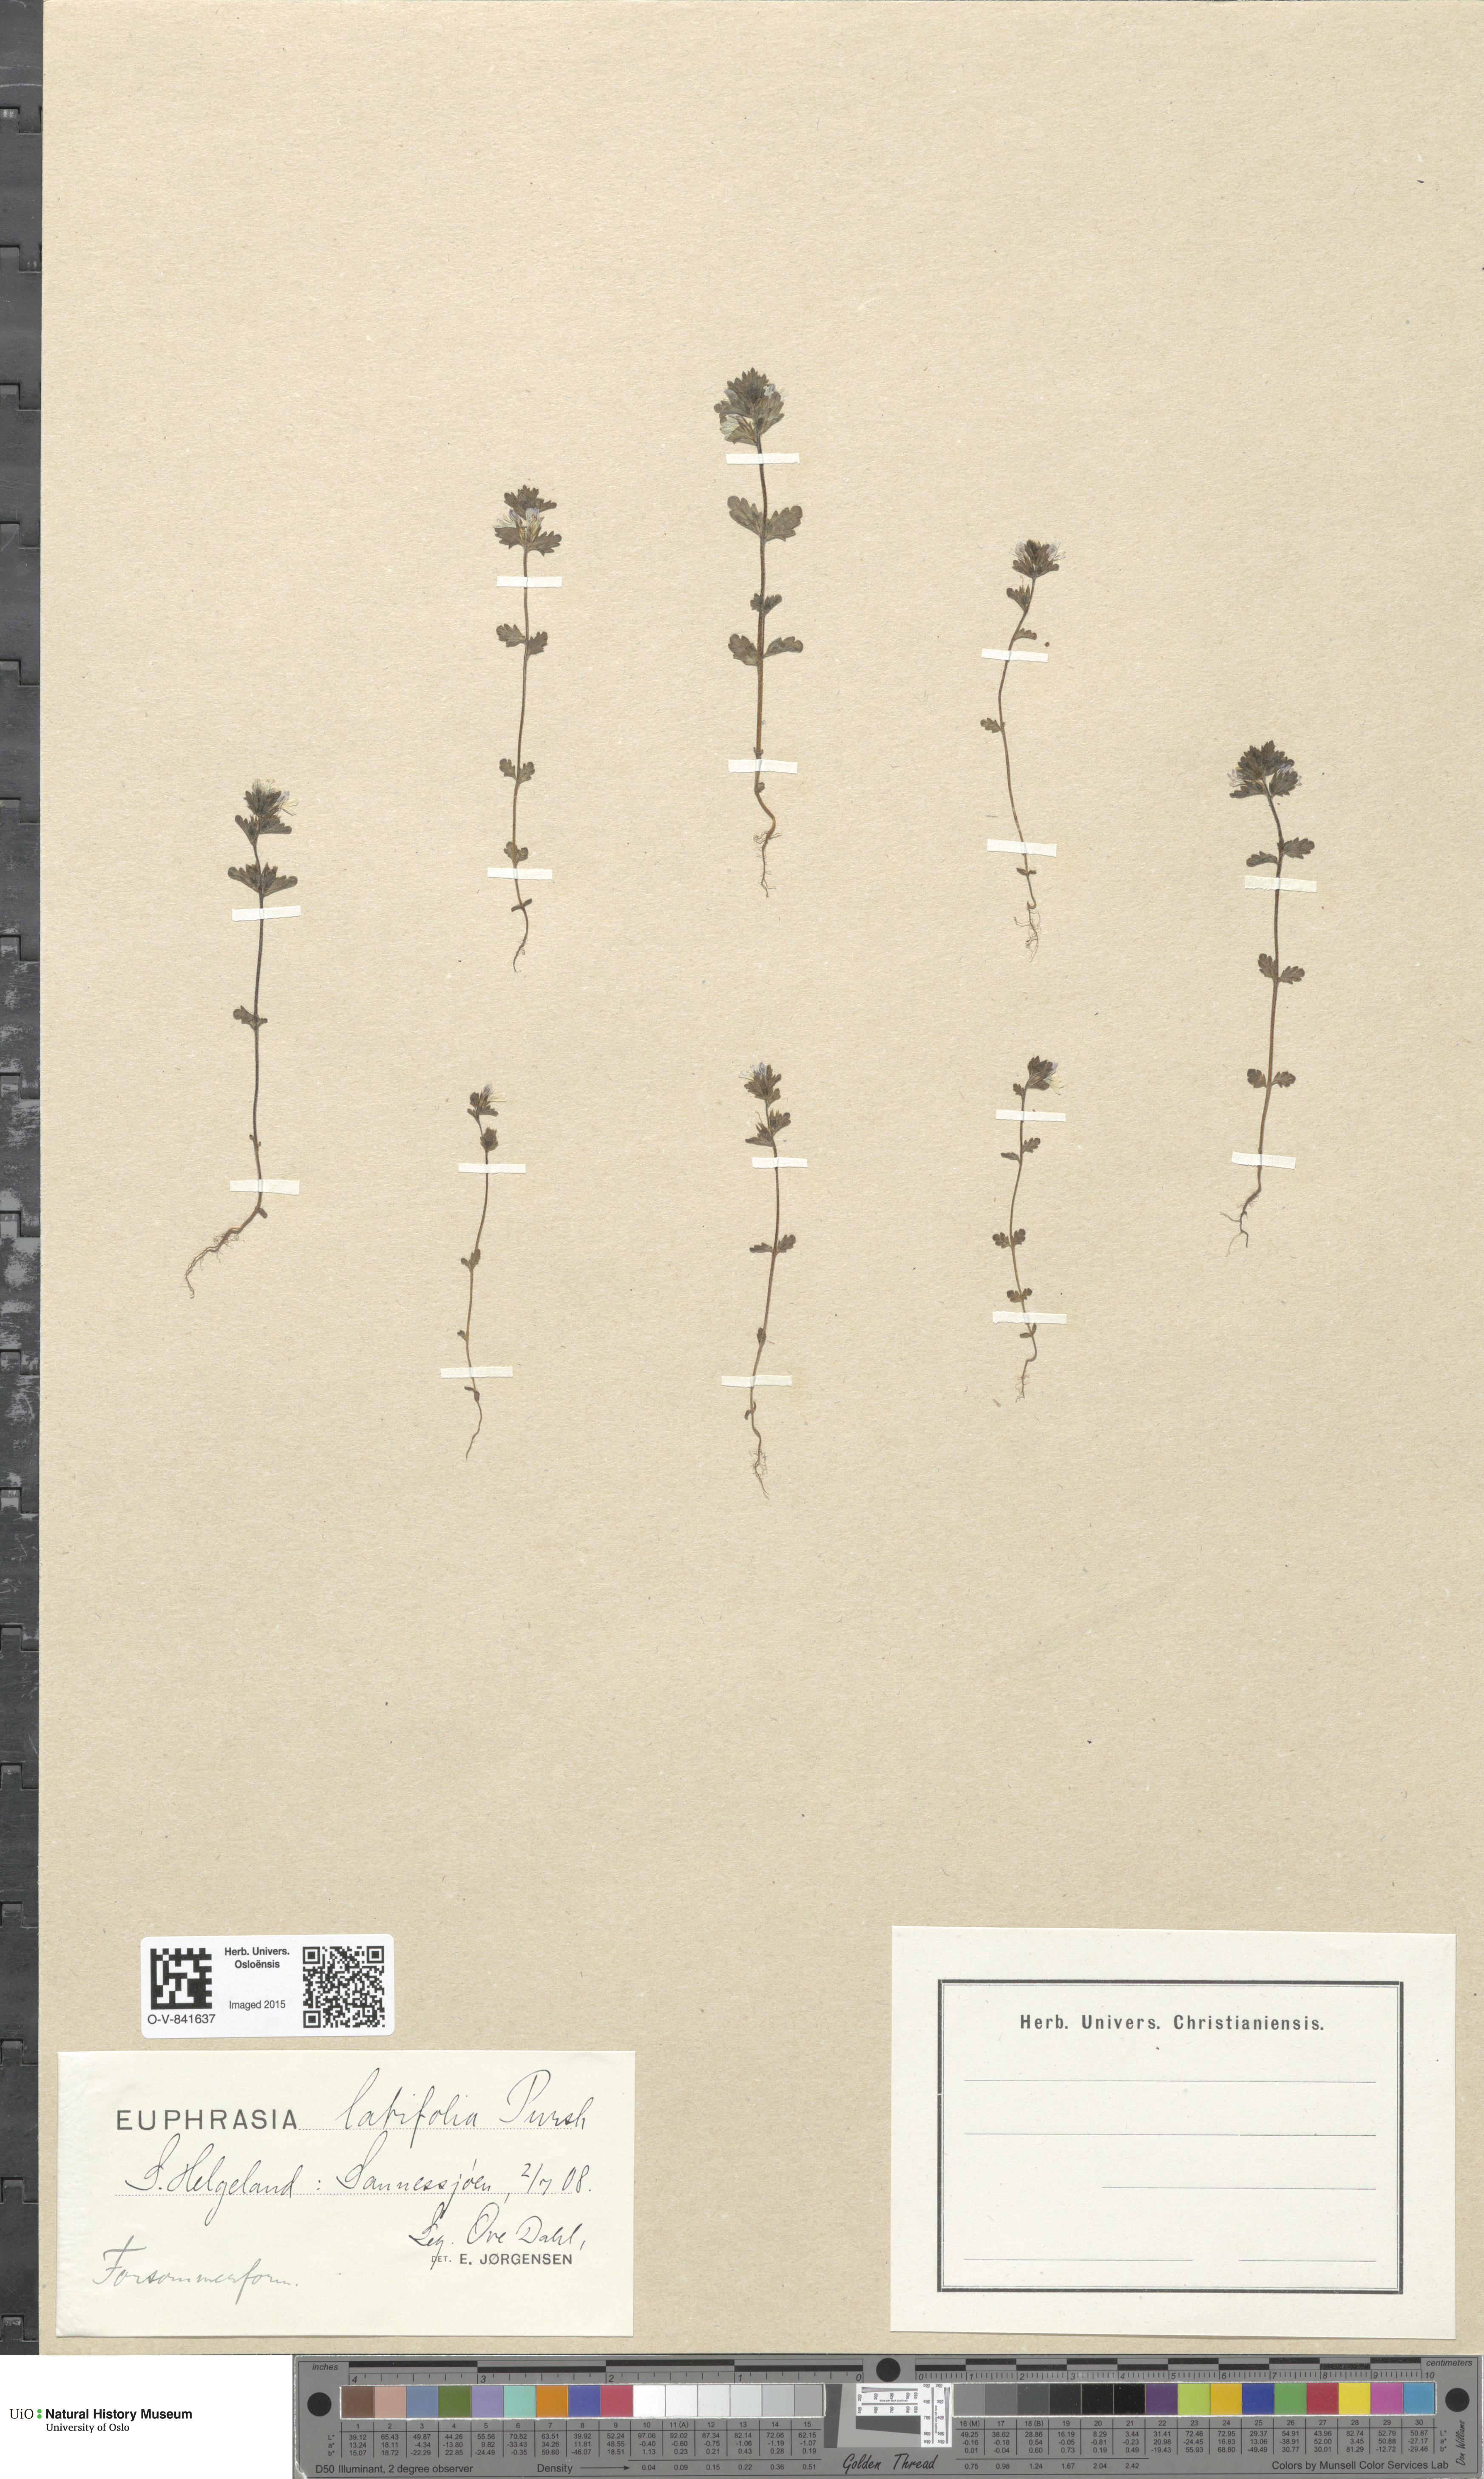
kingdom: Plantae
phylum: Tracheophyta
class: Magnoliopsida
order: Lamiales
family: Orobanchaceae
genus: Euphrasia
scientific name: Euphrasia wettsteinii
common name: Wettstein's eyebright
